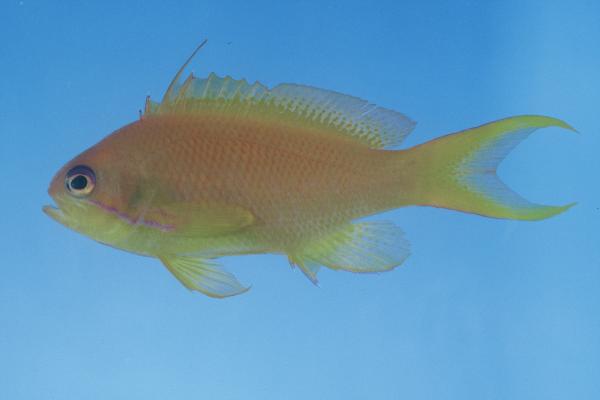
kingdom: Animalia
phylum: Chordata
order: Perciformes
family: Serranidae
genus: Pseudanthias
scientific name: Pseudanthias squamipinnis
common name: Scalefin anthias
